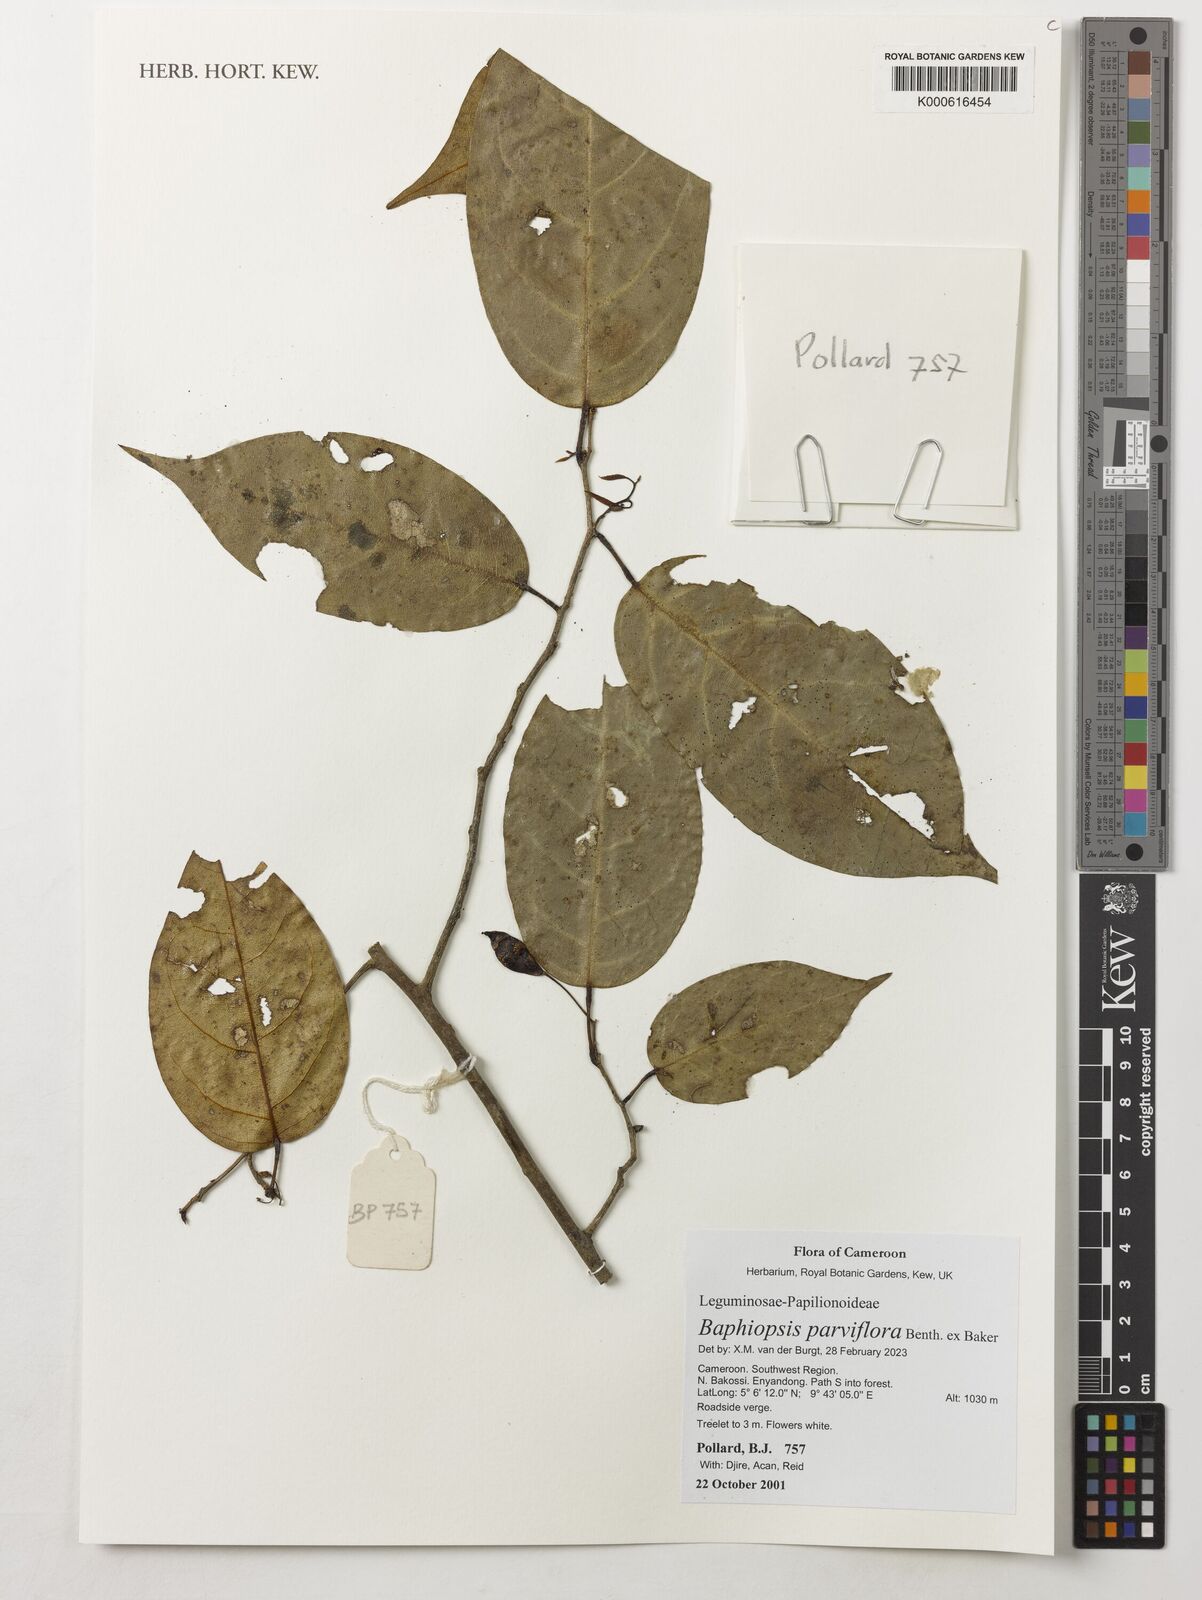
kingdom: Plantae
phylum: Tracheophyta
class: Magnoliopsida
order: Fabales
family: Fabaceae
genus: Baphiopsis
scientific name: Baphiopsis parviflora
